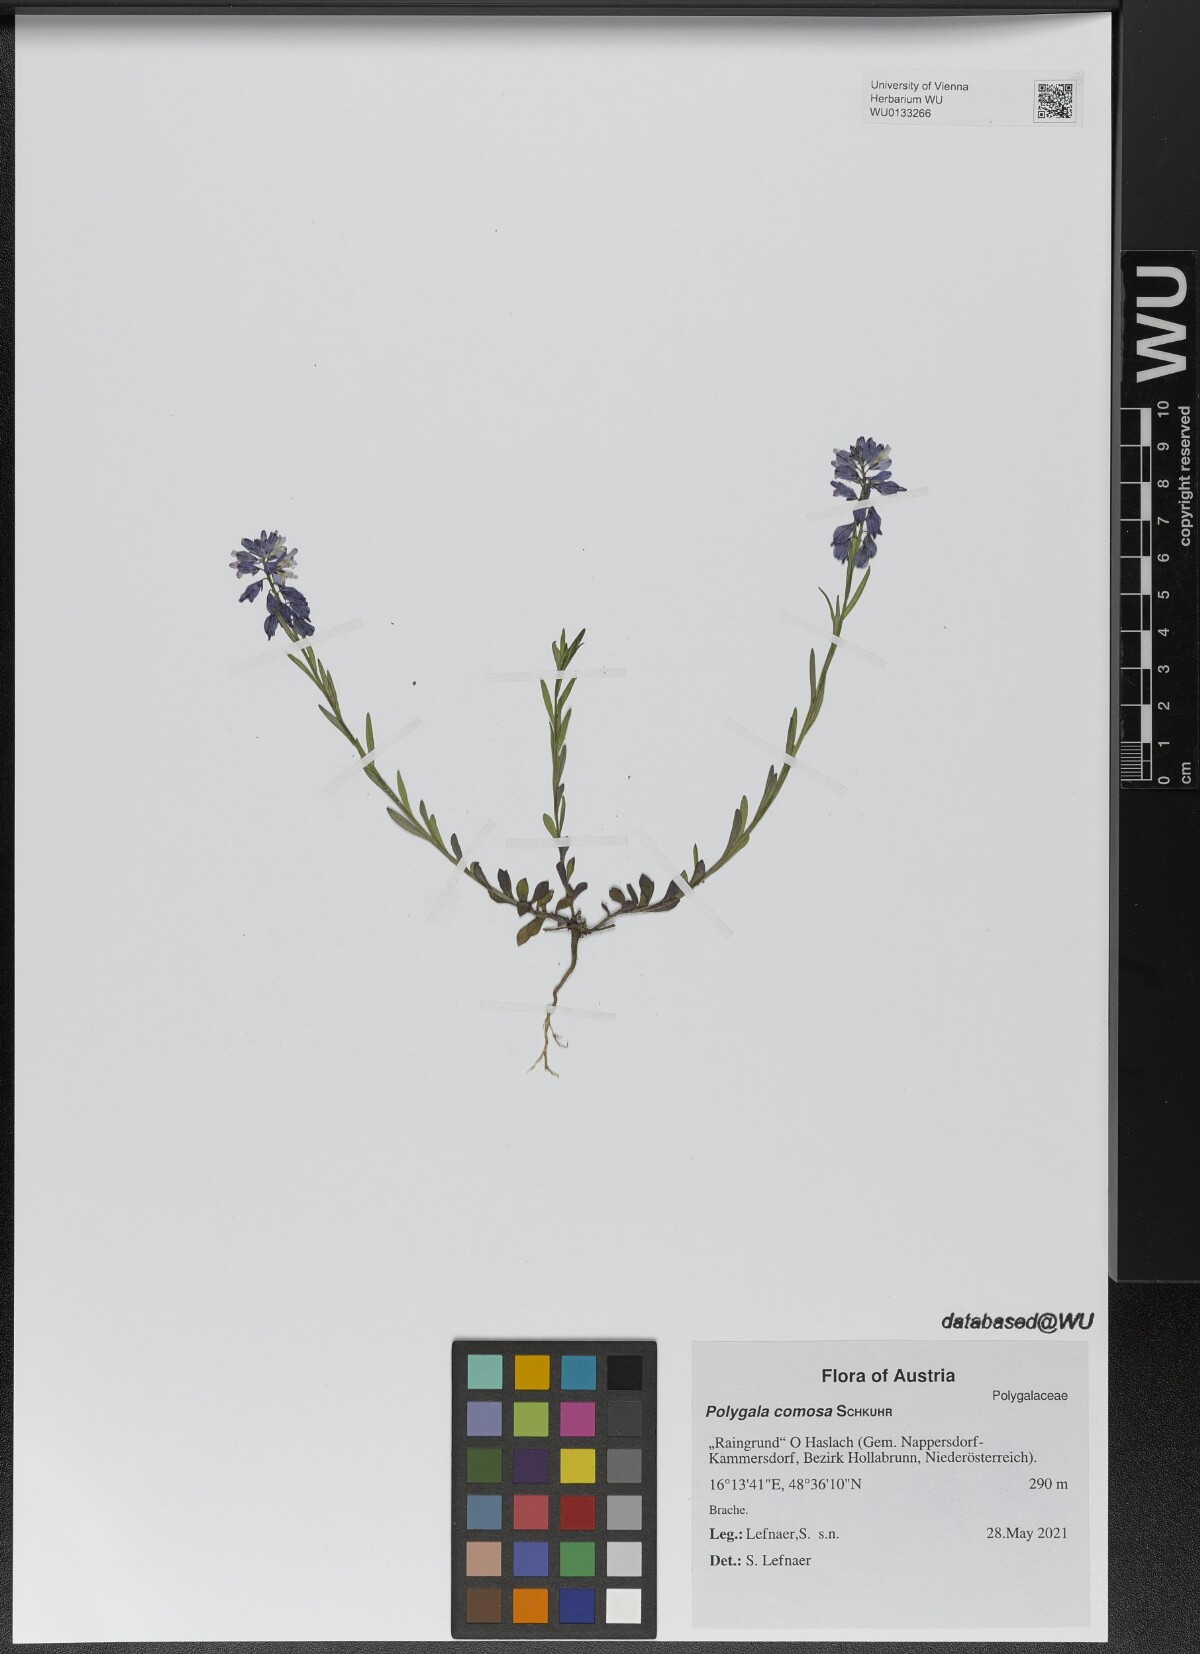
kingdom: Plantae
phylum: Tracheophyta
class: Magnoliopsida
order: Fabales
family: Polygalaceae
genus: Polygala
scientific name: Polygala comosa
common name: Tufted milkwort
